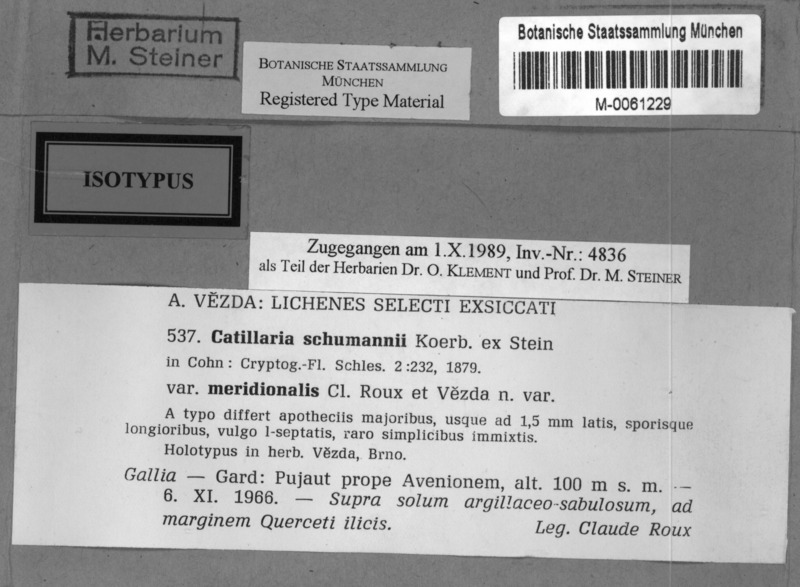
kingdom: Fungi
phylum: Ascomycota
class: Lecanoromycetes
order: Lecanorales
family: Byssolomataceae
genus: Micarea
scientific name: Micarea melaenida
